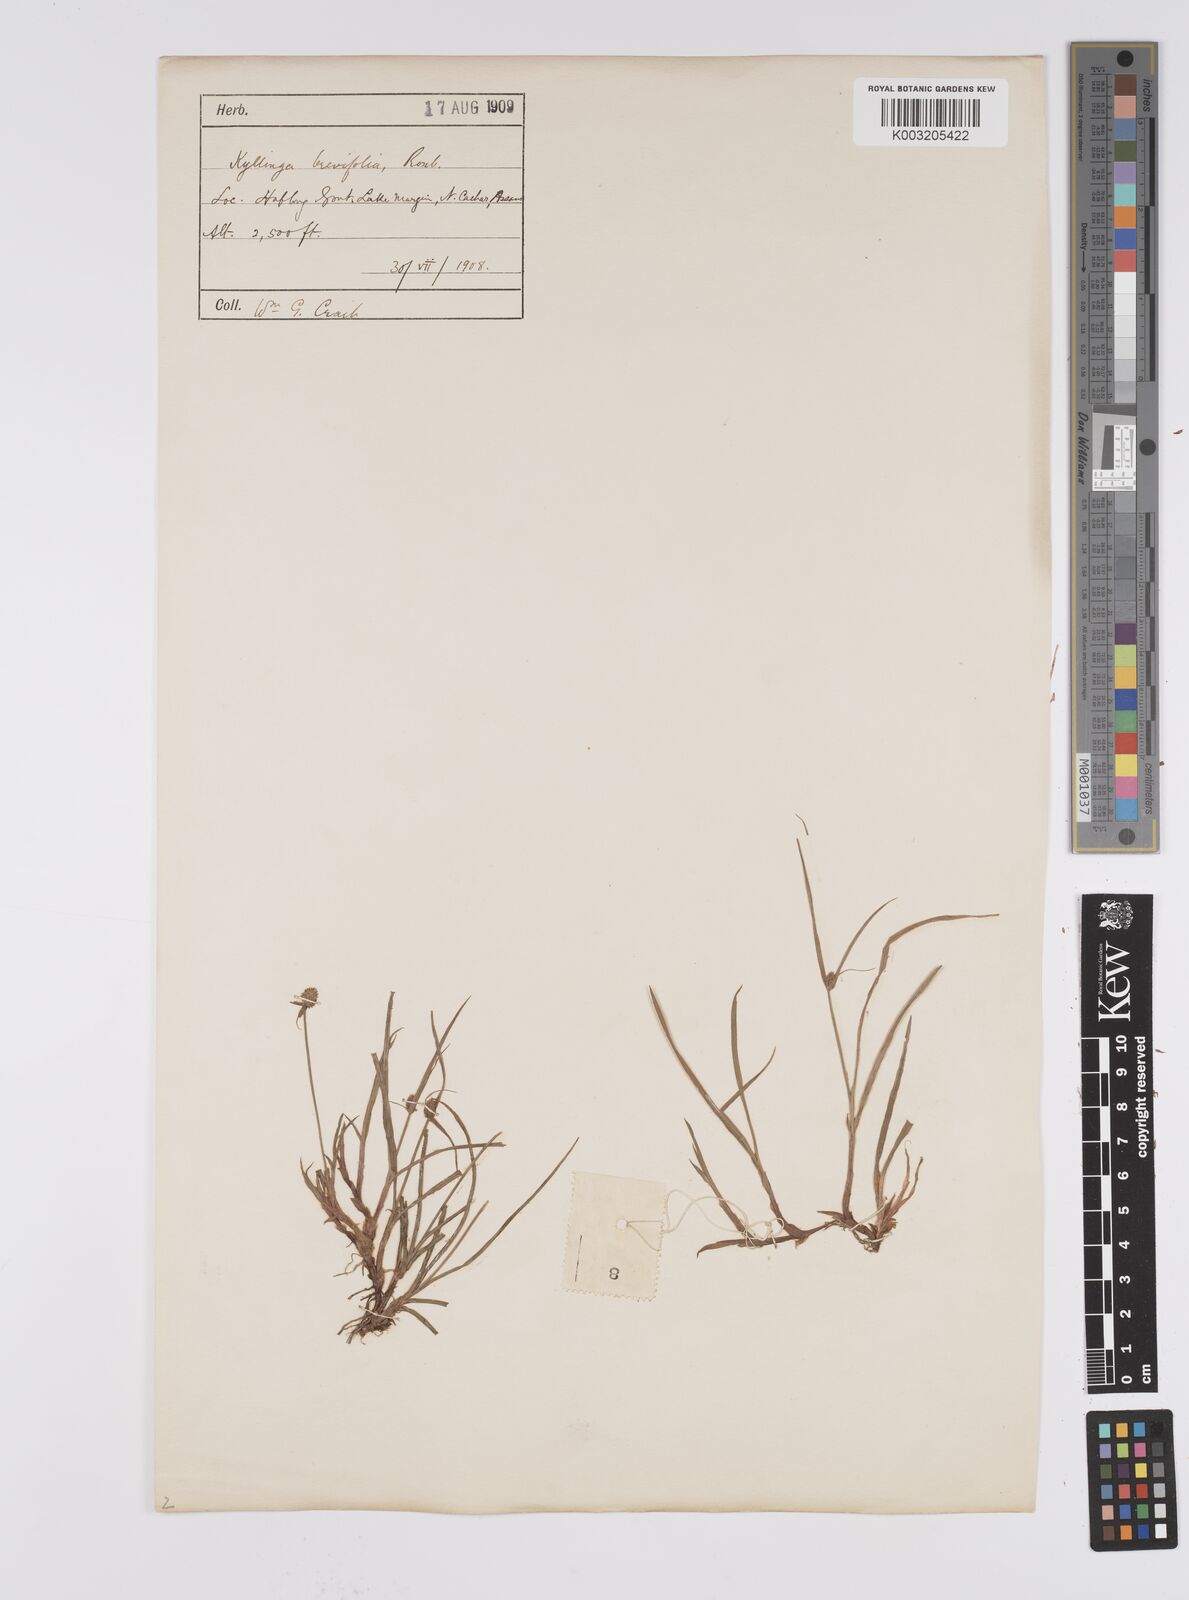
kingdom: Plantae
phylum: Tracheophyta
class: Liliopsida
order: Poales
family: Cyperaceae
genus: Cyperus
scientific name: Cyperus brevifolius
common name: Globe kyllinga
